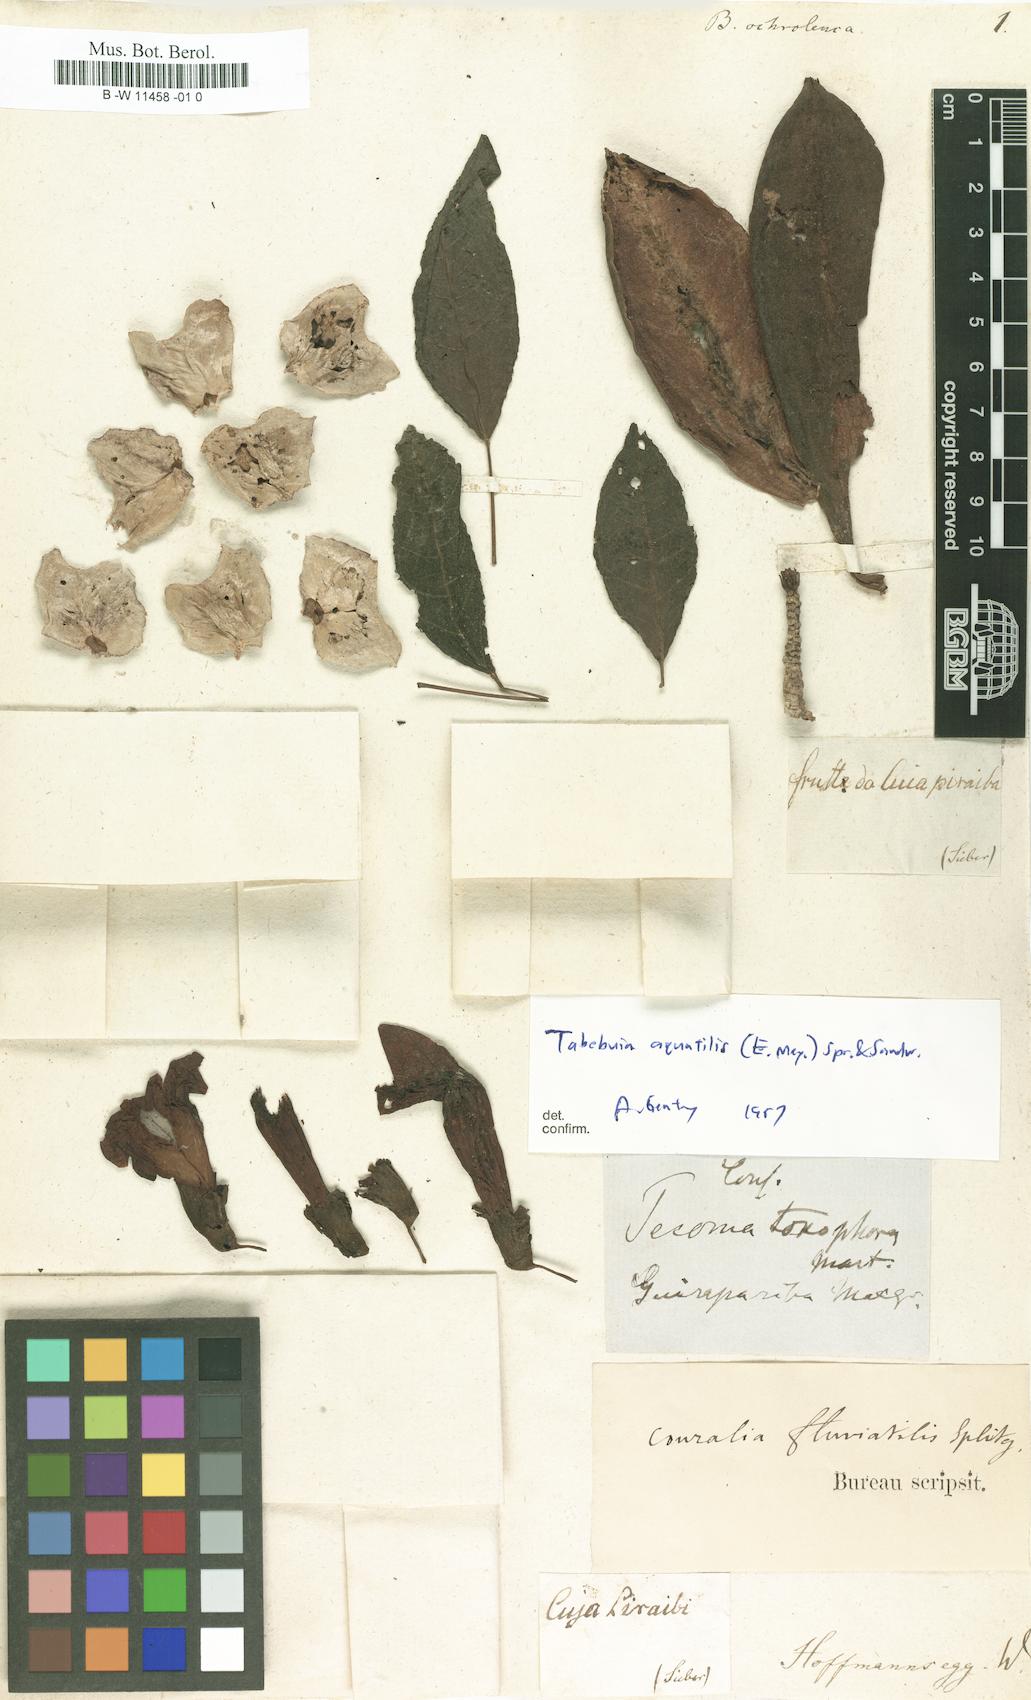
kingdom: Plantae
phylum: Tracheophyta
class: Magnoliopsida
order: Lamiales
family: Bignoniaceae
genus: Bignonia
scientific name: Bignonia
